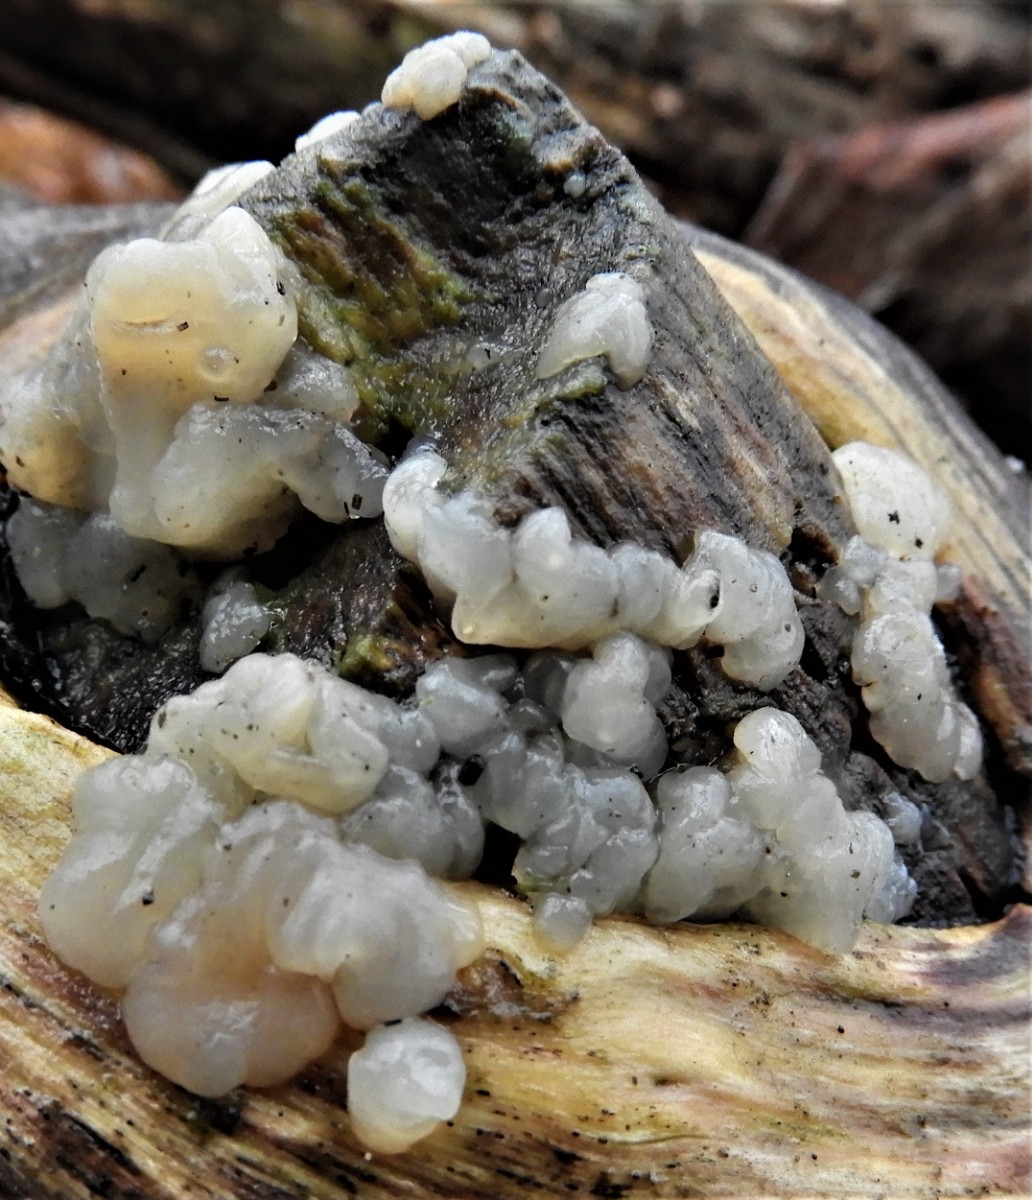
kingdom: Fungi
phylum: Basidiomycota
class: Agaricomycetes
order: Auriculariales
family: Hyaloriaceae
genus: Myxarium
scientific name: Myxarium nucleatum
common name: klar bævretop
